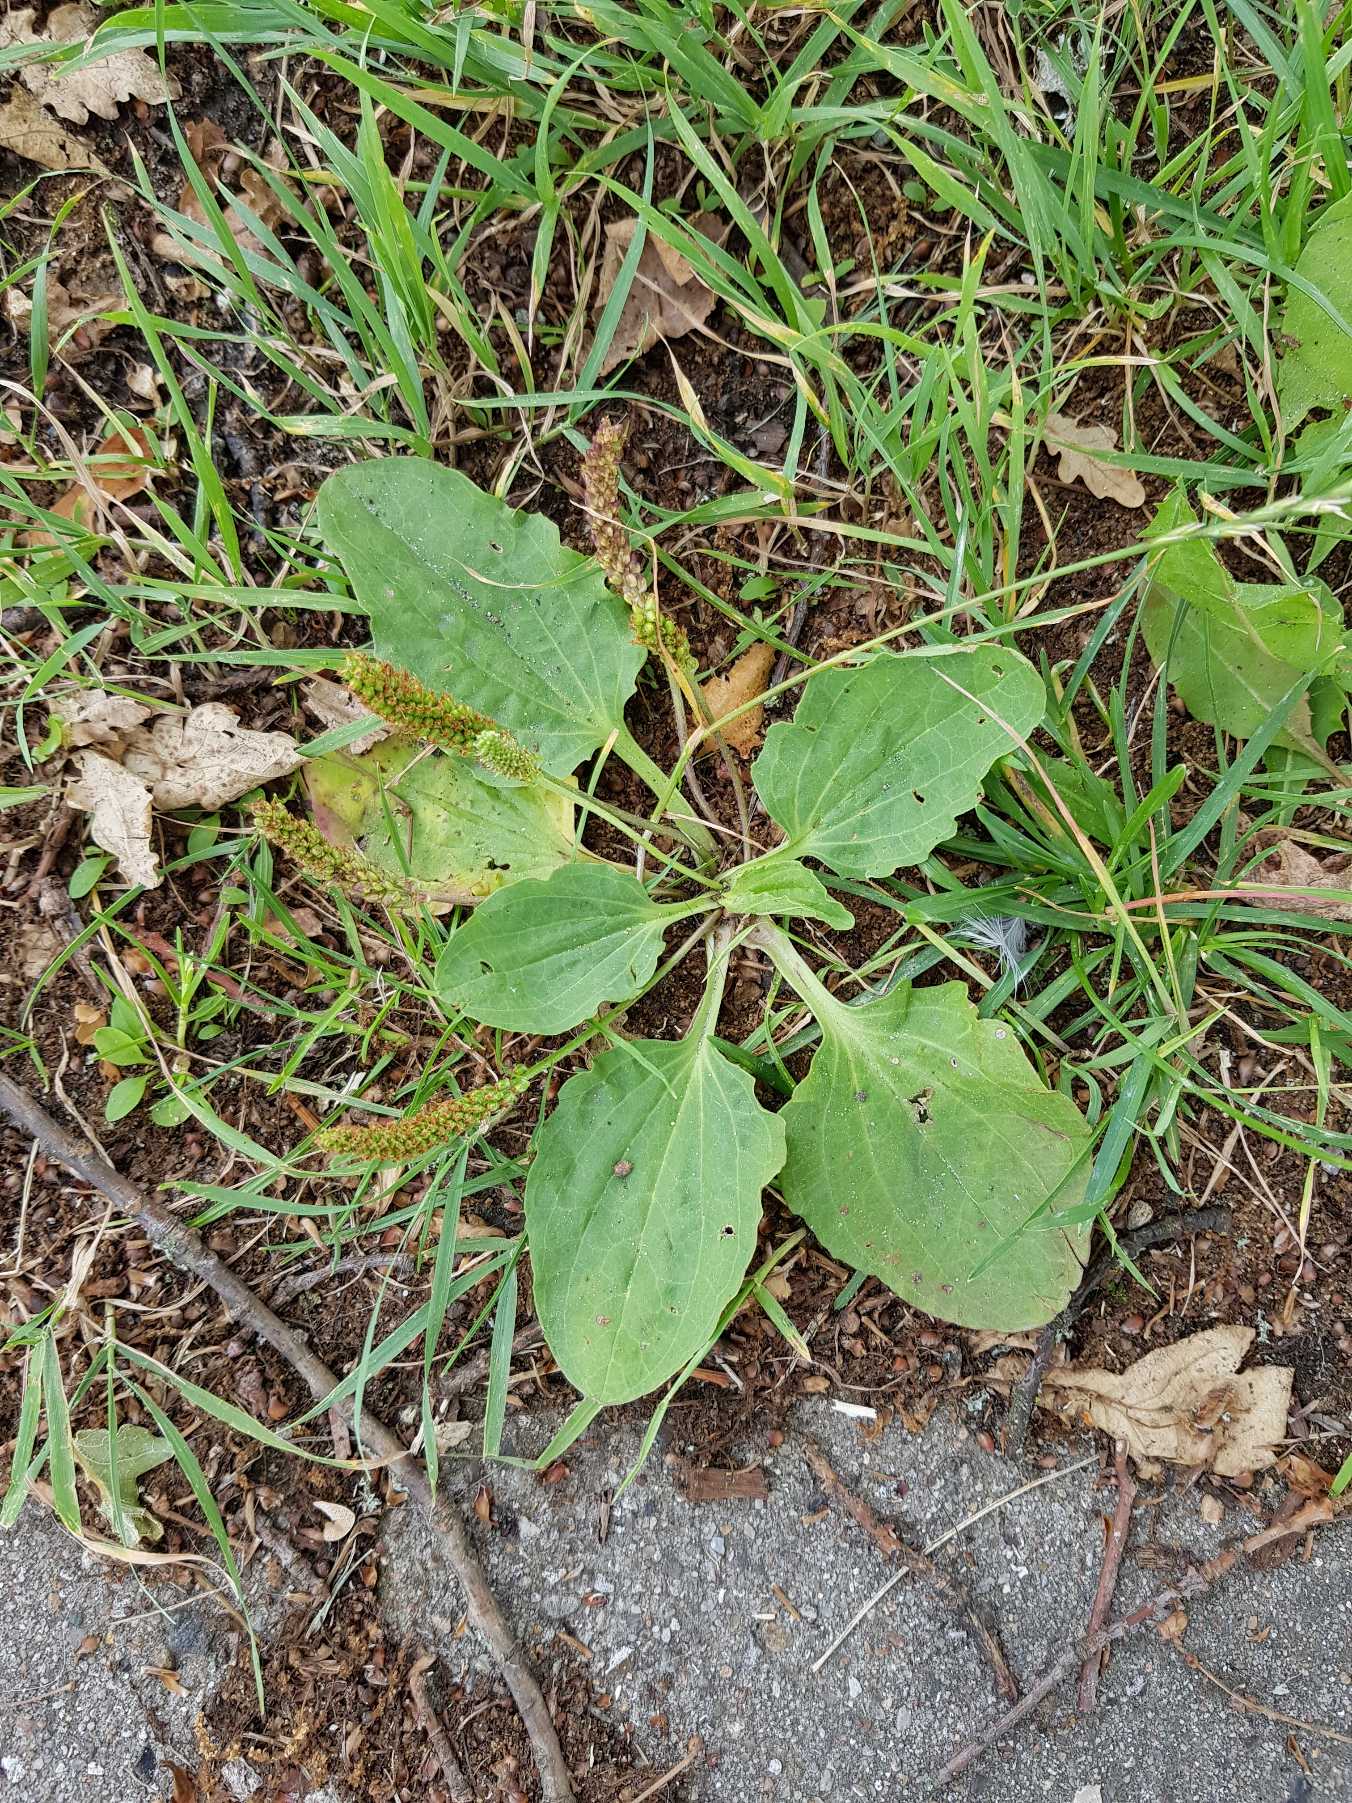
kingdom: Plantae
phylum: Tracheophyta
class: Magnoliopsida
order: Lamiales
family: Plantaginaceae
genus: Plantago
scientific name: Plantago uliginosa
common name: Ager-vejbred
